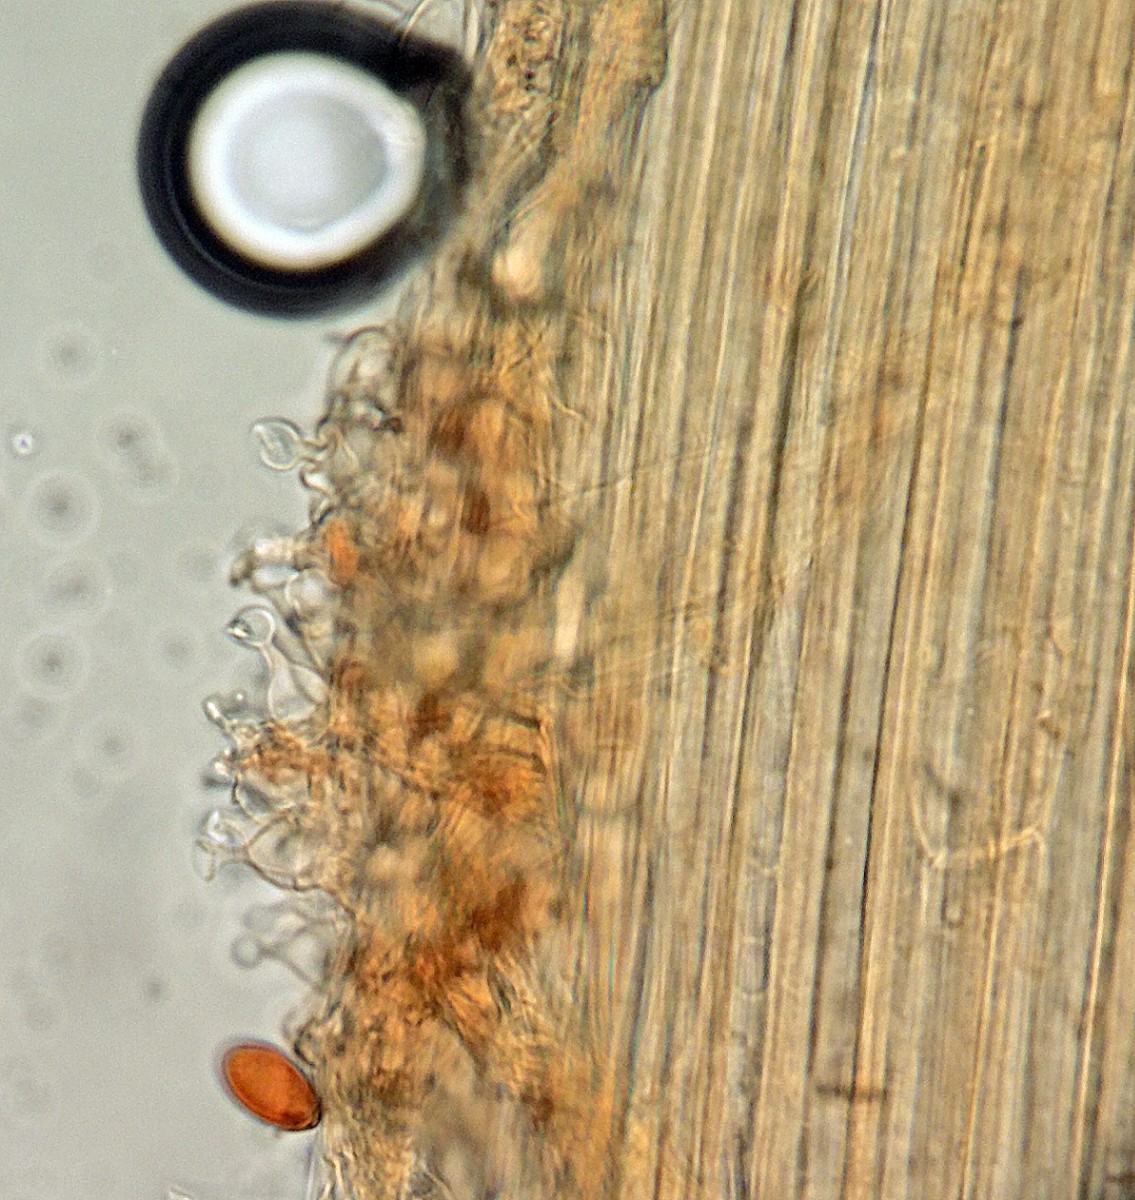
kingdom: Fungi
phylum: Basidiomycota
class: Agaricomycetes
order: Agaricales
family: Bolbitiaceae
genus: Conocybe
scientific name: Conocybe semiglobata
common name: halvkugleformet keglehat
